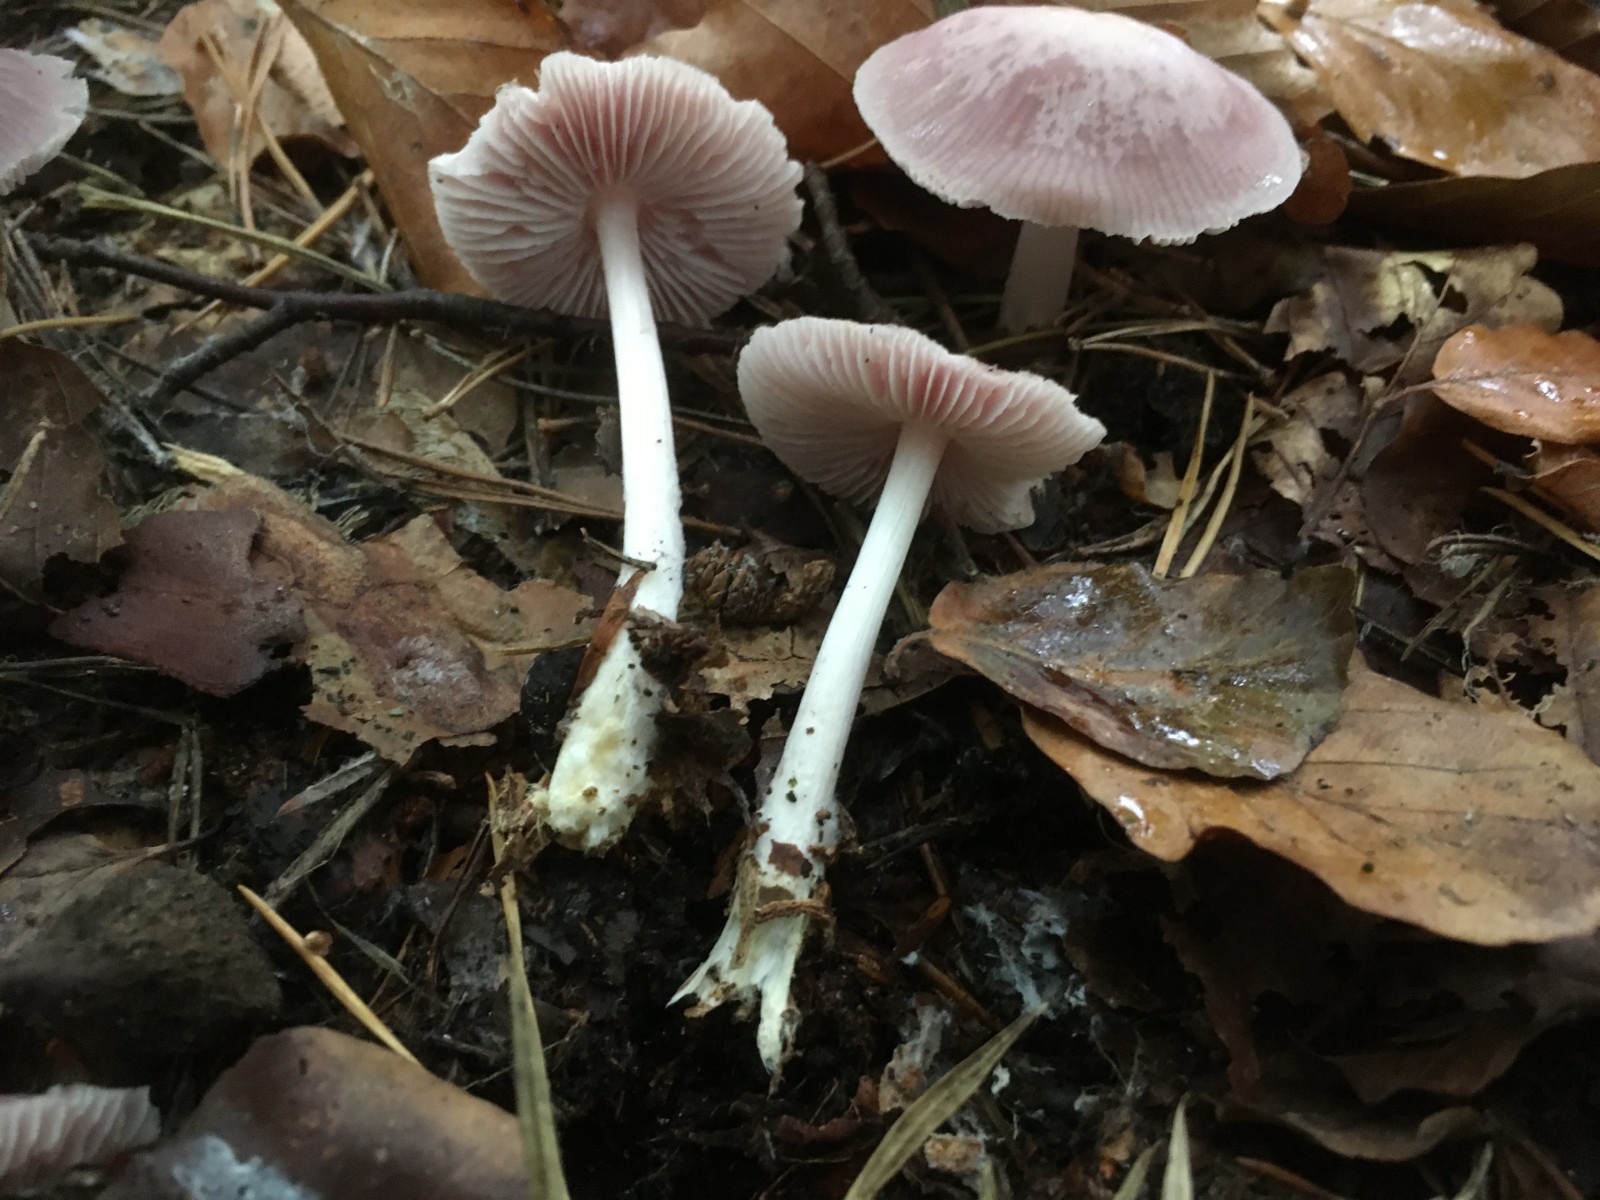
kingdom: Fungi
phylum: Basidiomycota
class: Agaricomycetes
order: Agaricales
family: Mycenaceae
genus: Mycena
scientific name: Mycena rosea
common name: rosa huesvamp
